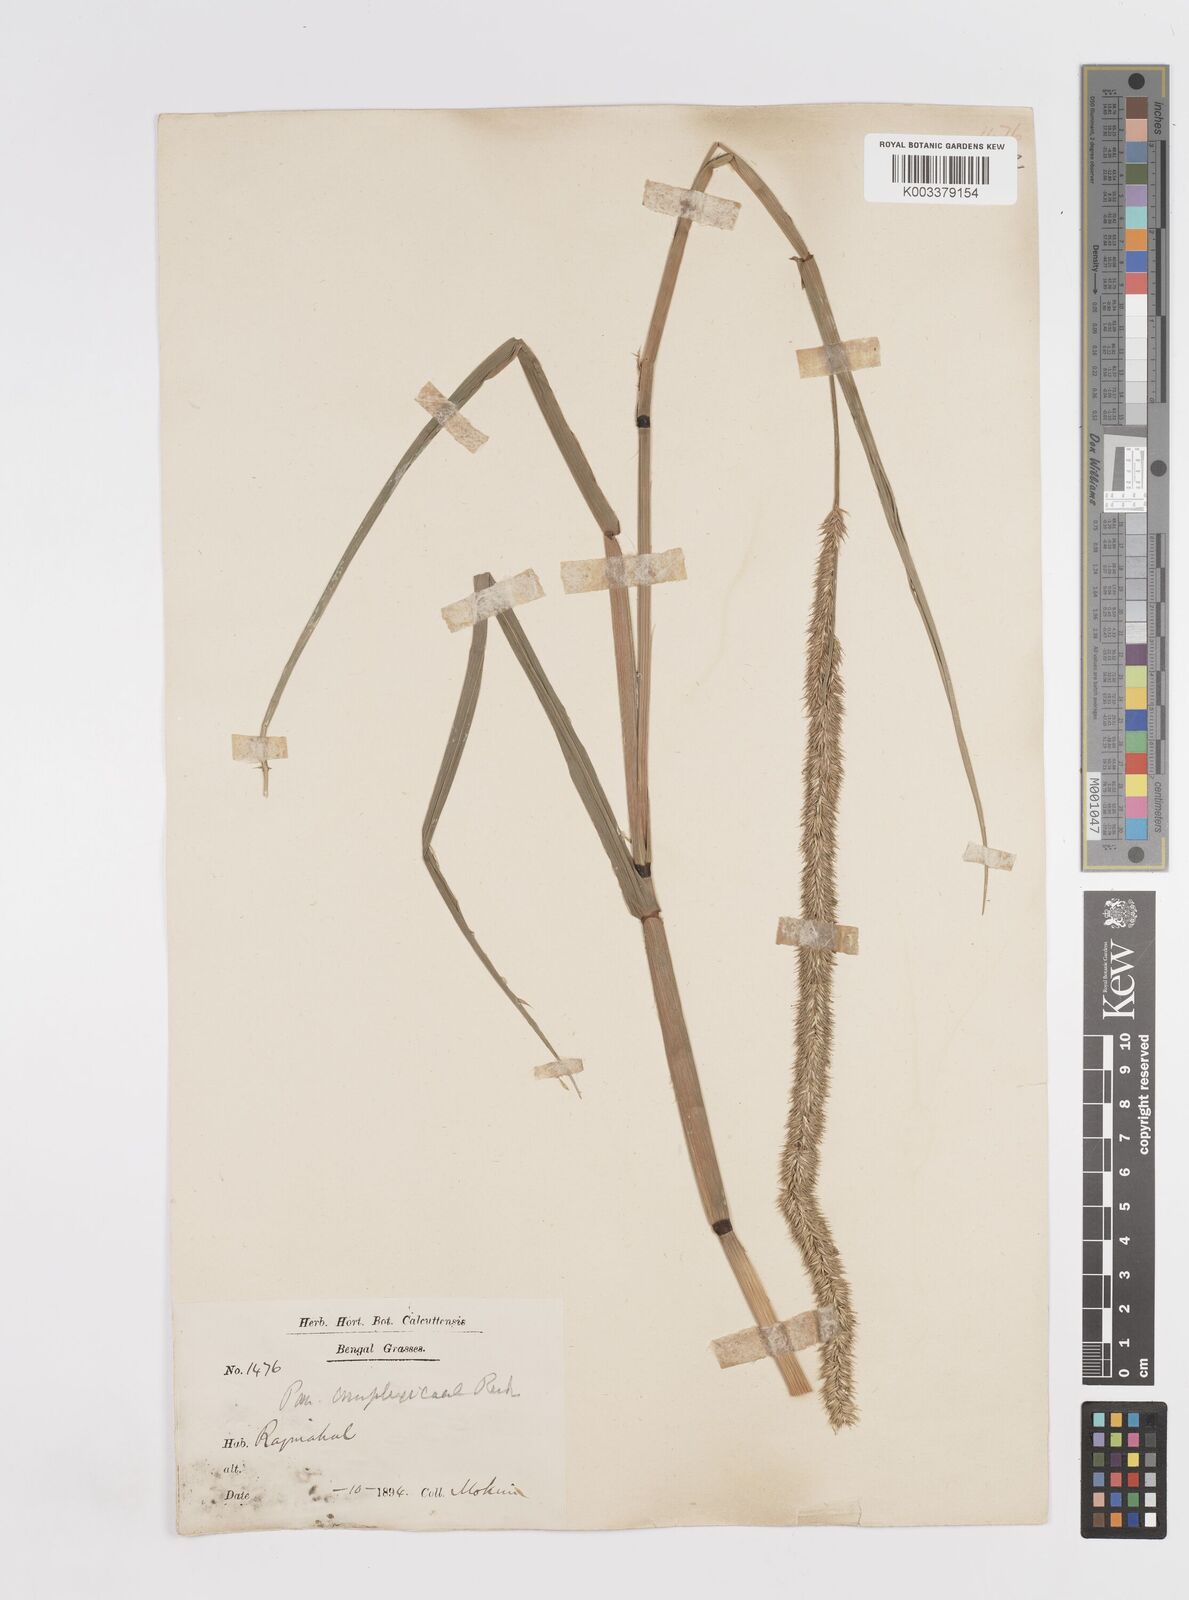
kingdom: Plantae
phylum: Tracheophyta
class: Liliopsida
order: Poales
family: Poaceae
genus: Hymenachne
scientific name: Hymenachne amplexicaulis
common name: Olive hymenachne
